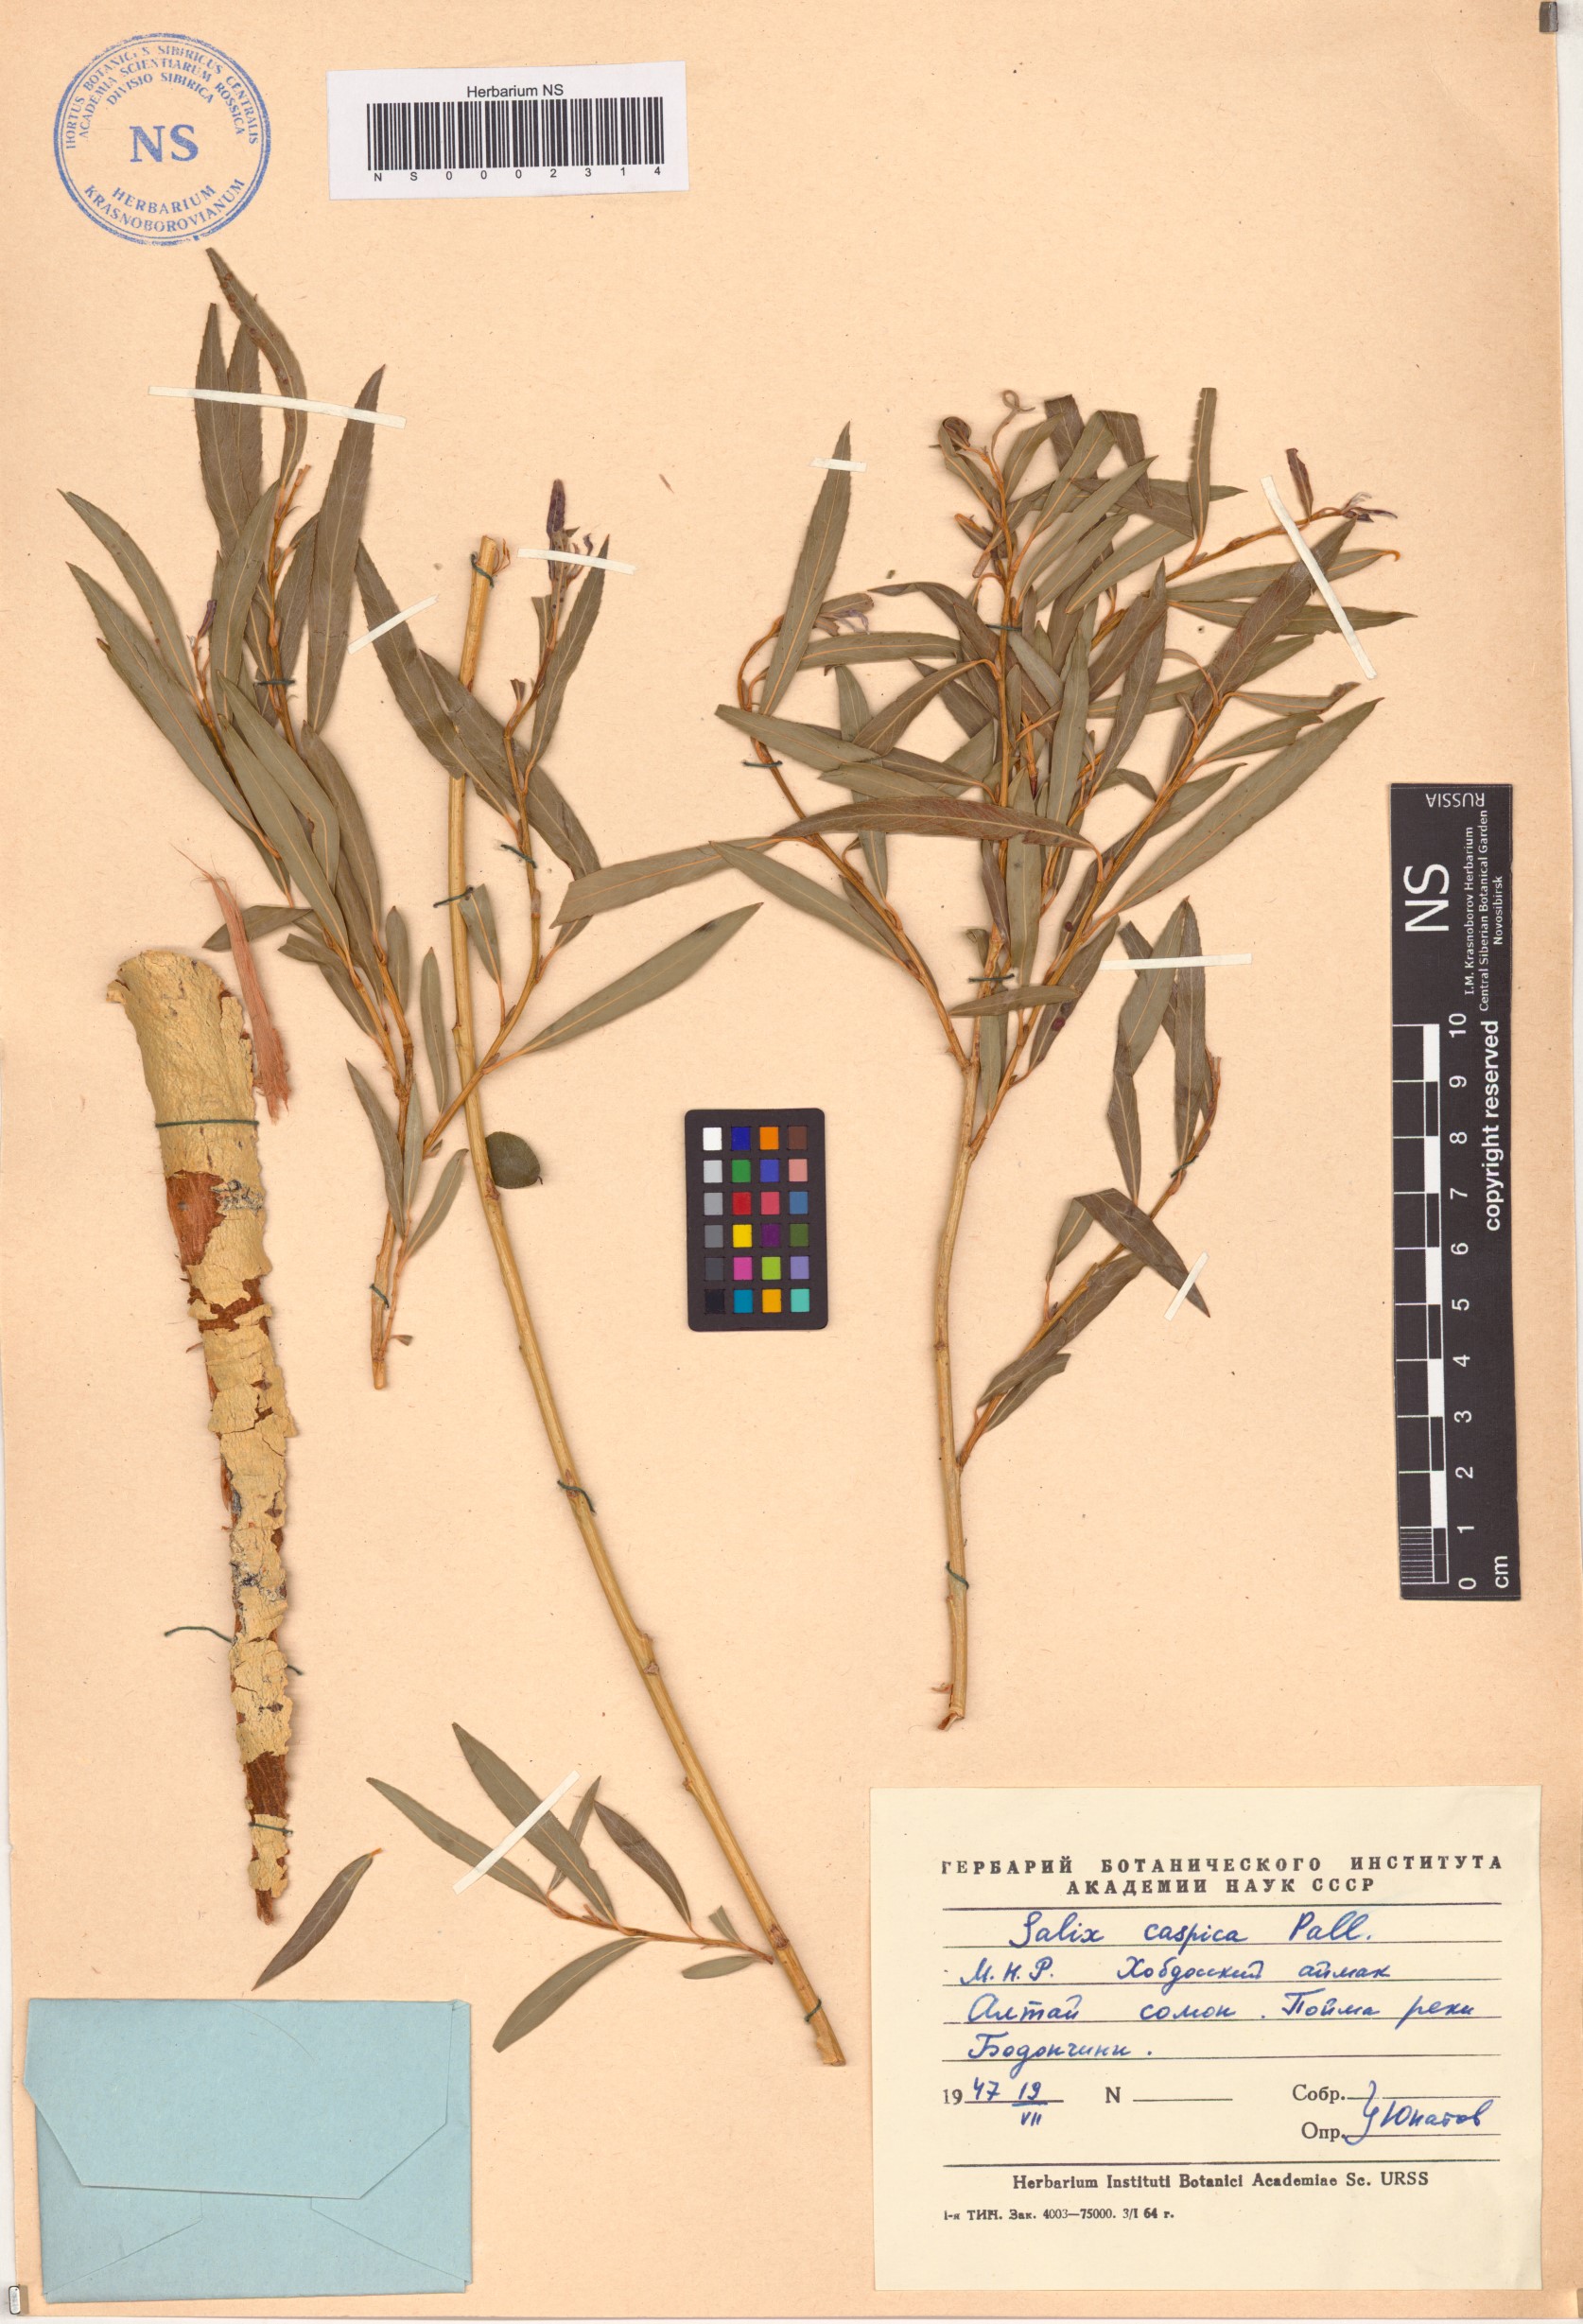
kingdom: Plantae
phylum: Tracheophyta
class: Magnoliopsida
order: Malpighiales
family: Salicaceae
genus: Salix
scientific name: Salix caspica
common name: Caspian willow
